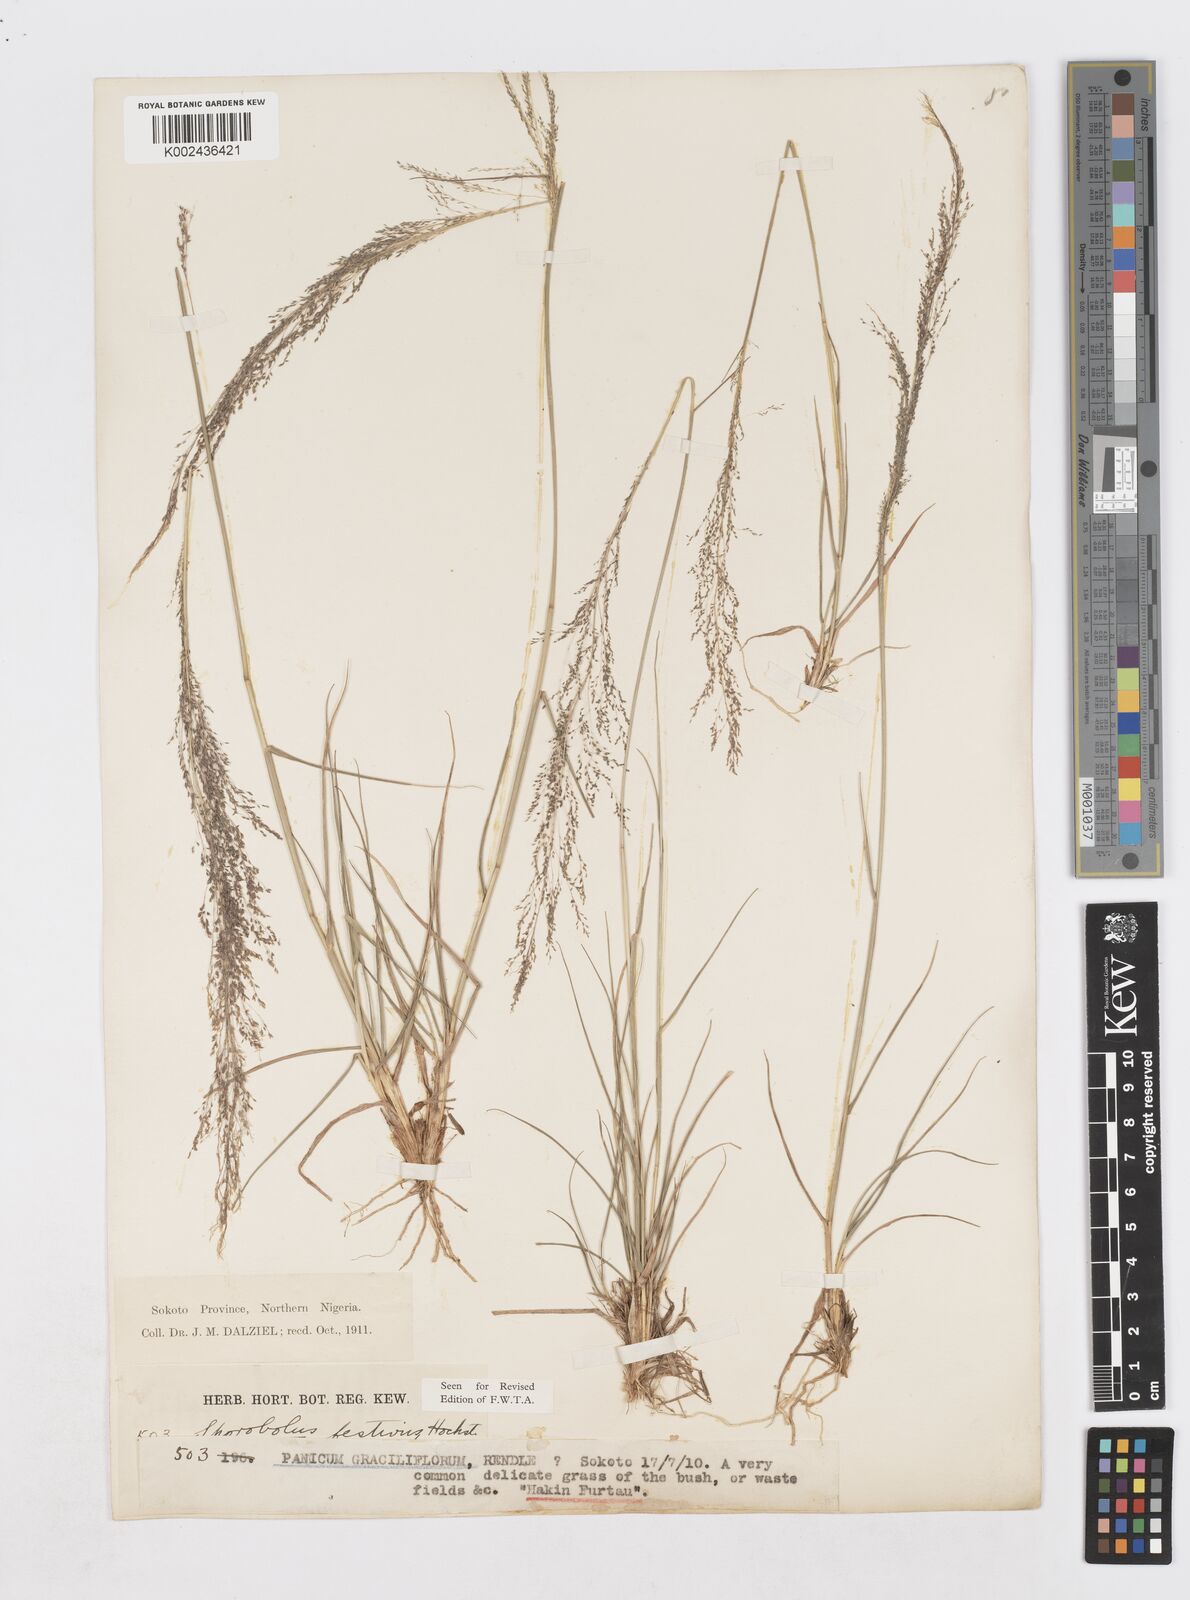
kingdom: Plantae
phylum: Tracheophyta
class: Liliopsida
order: Poales
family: Poaceae
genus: Sporobolus
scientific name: Sporobolus festivus
